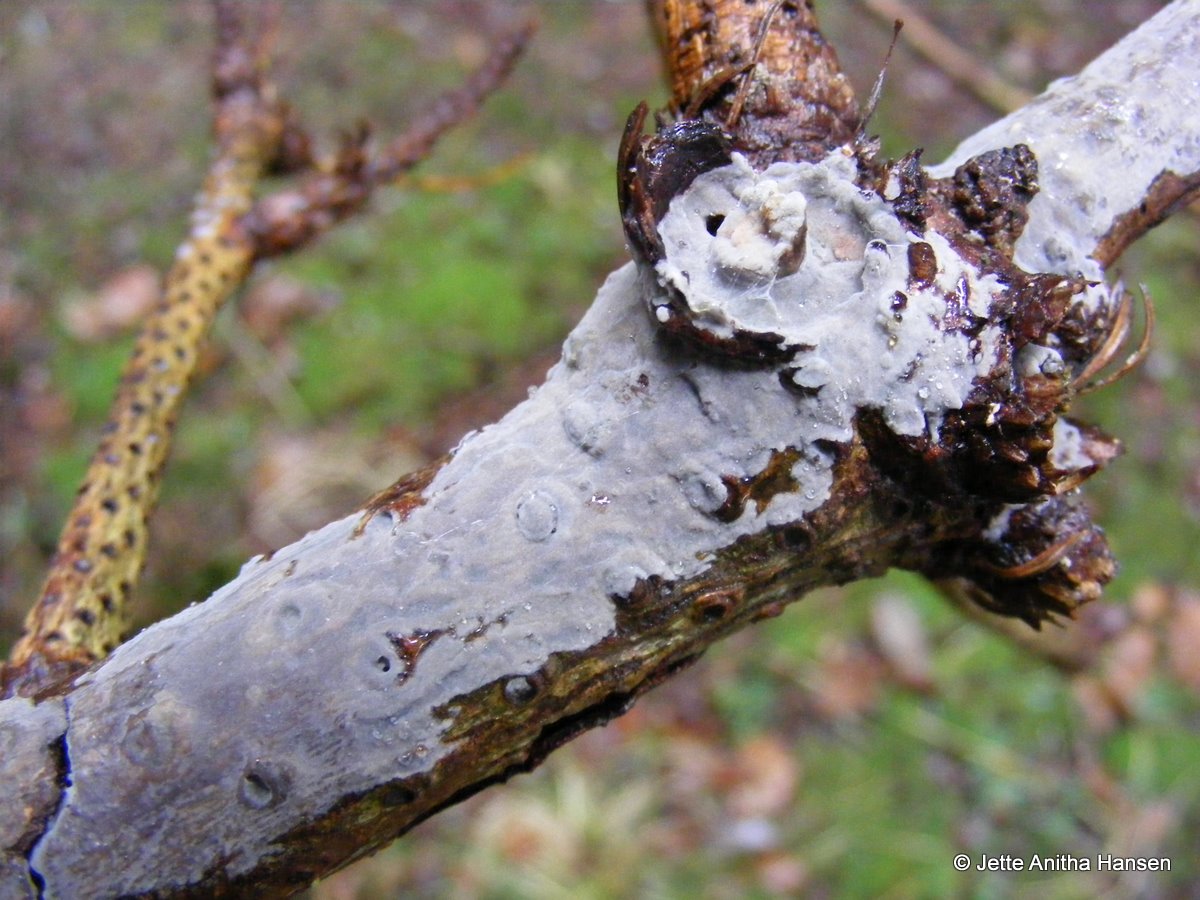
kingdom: Fungi
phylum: Basidiomycota
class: Agaricomycetes
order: Sebacinales
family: Sebacinaceae
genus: Sebacina
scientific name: Sebacina grisea
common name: blågrå bævrehinde
